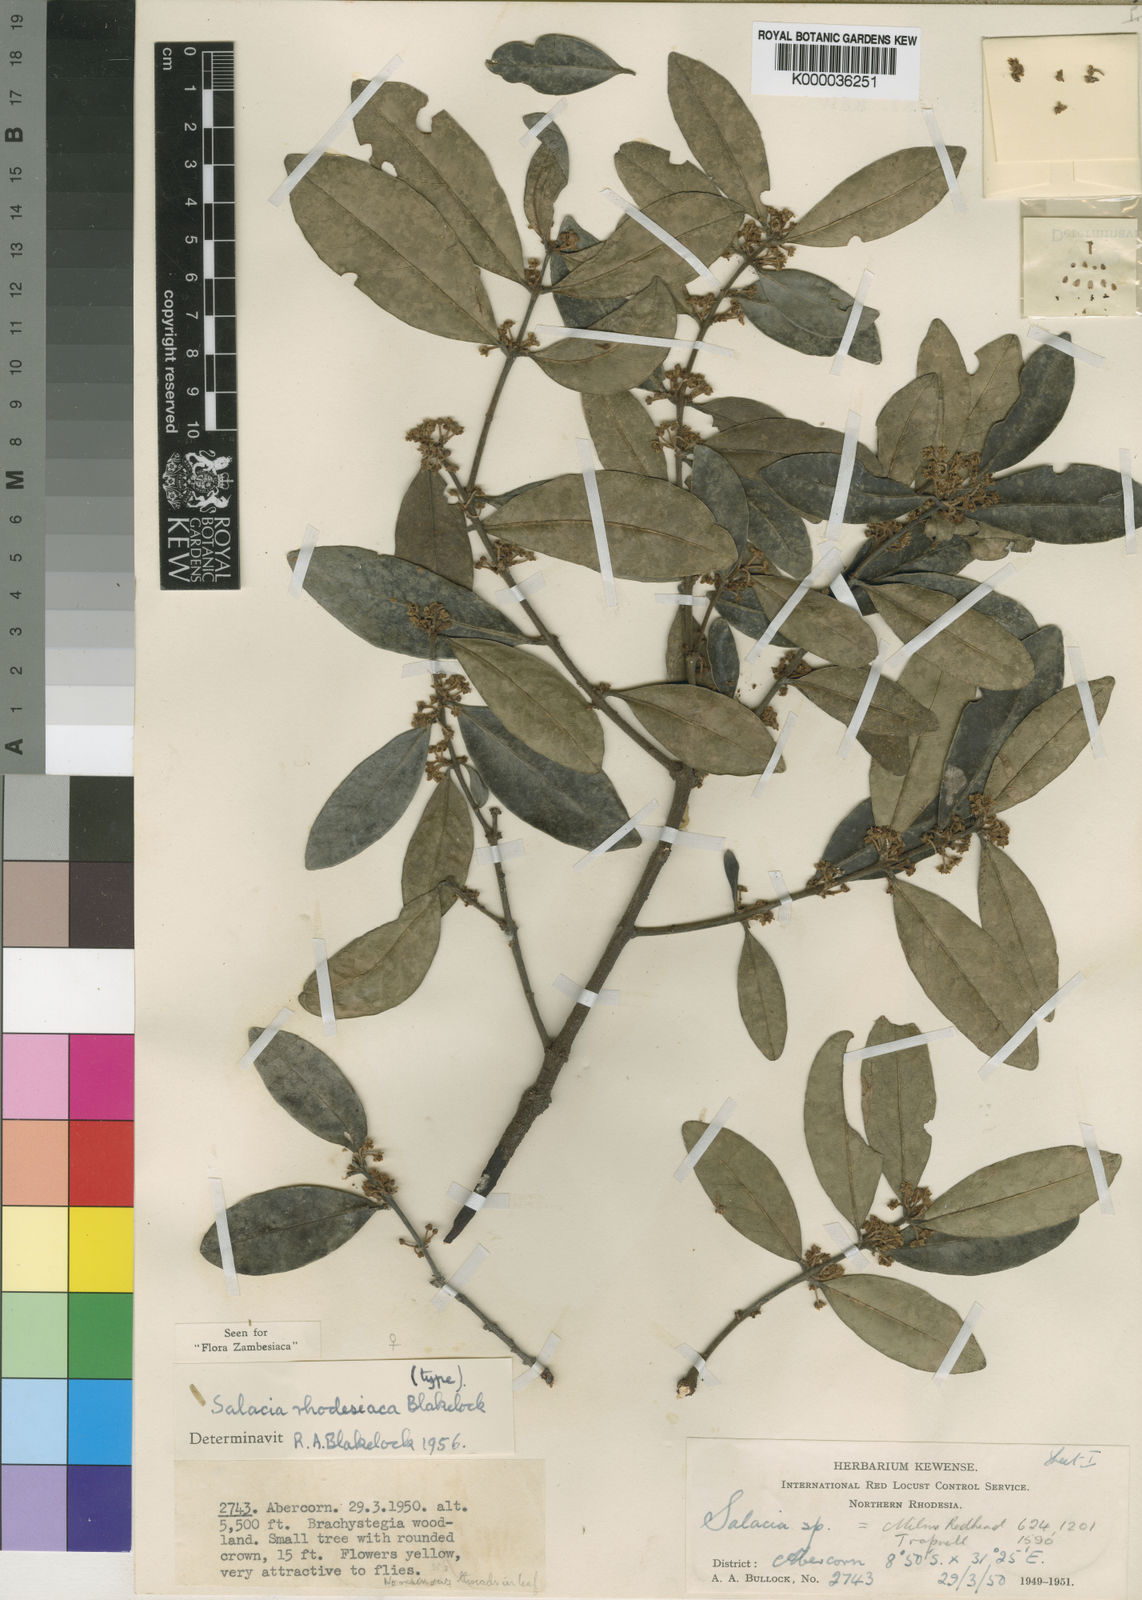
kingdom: Plantae
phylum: Tracheophyta
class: Magnoliopsida
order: Celastrales
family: Celastraceae
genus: Salacia
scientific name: Salacia rhodesiaca
